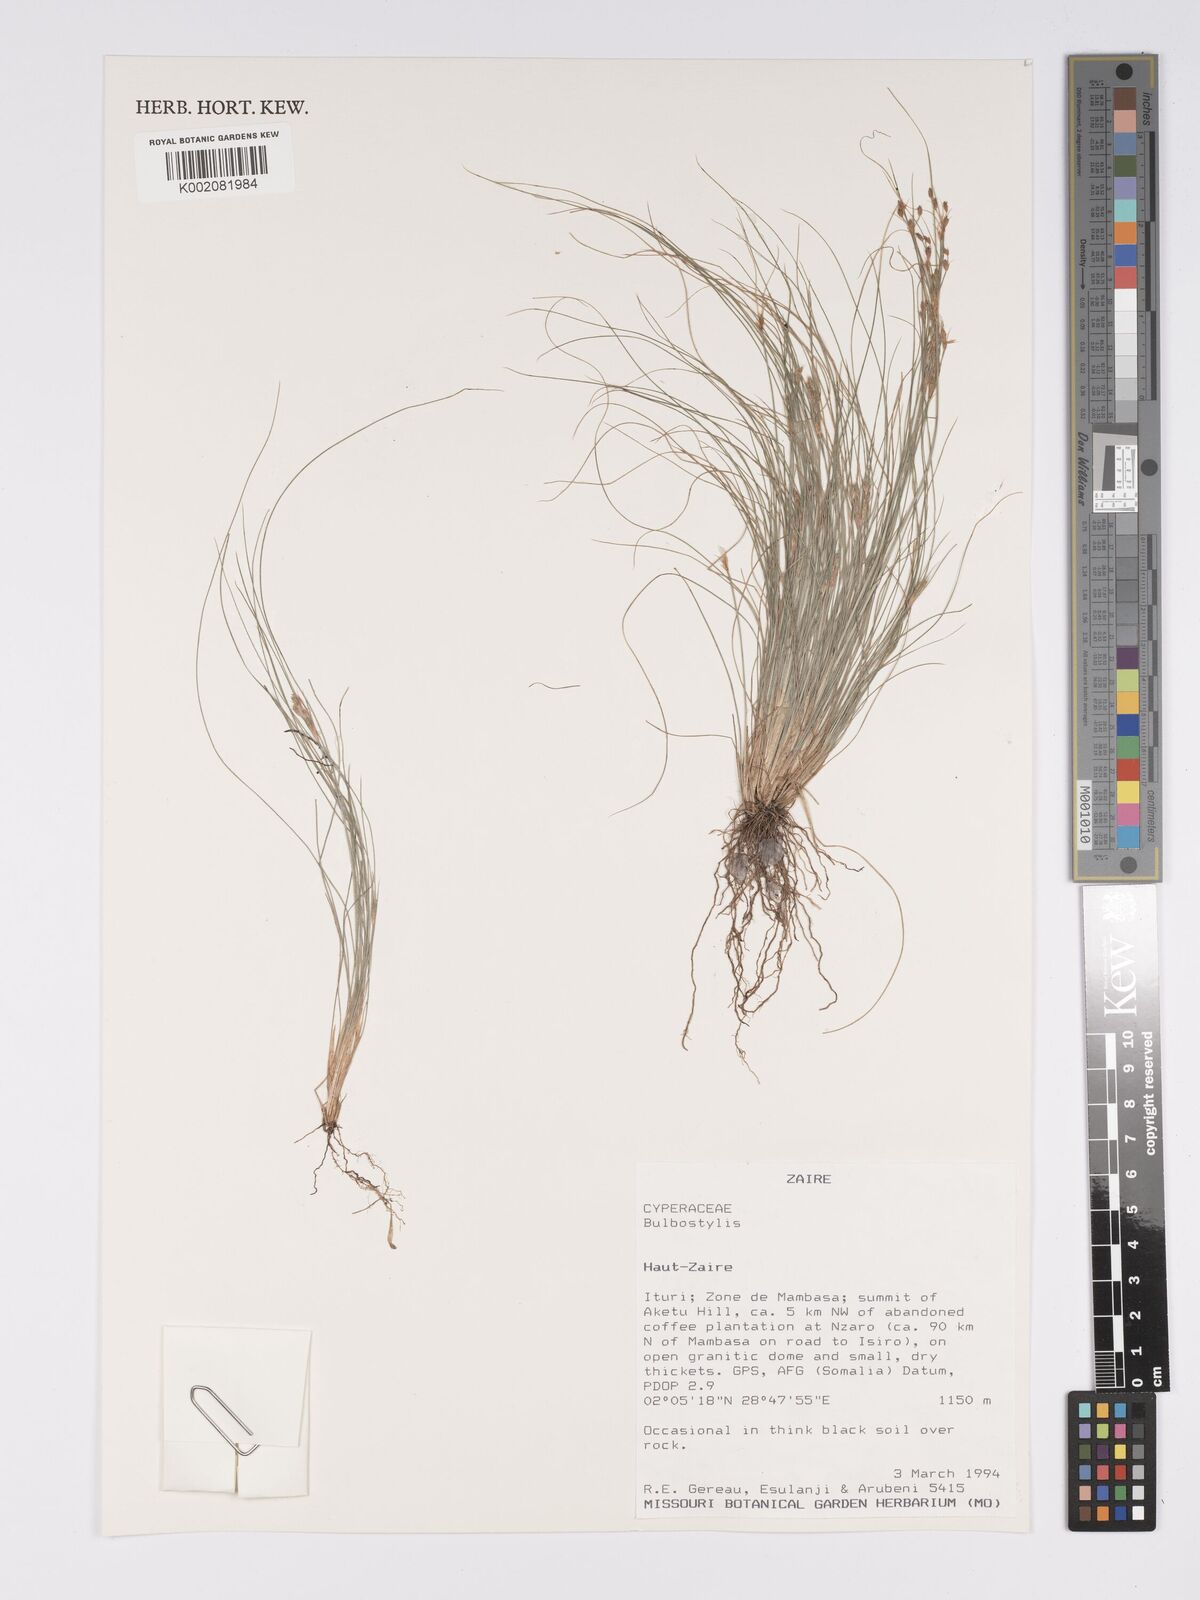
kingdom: Plantae
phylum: Tracheophyta
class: Liliopsida
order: Poales
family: Cyperaceae
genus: Bulbostylis
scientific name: Bulbostylis
